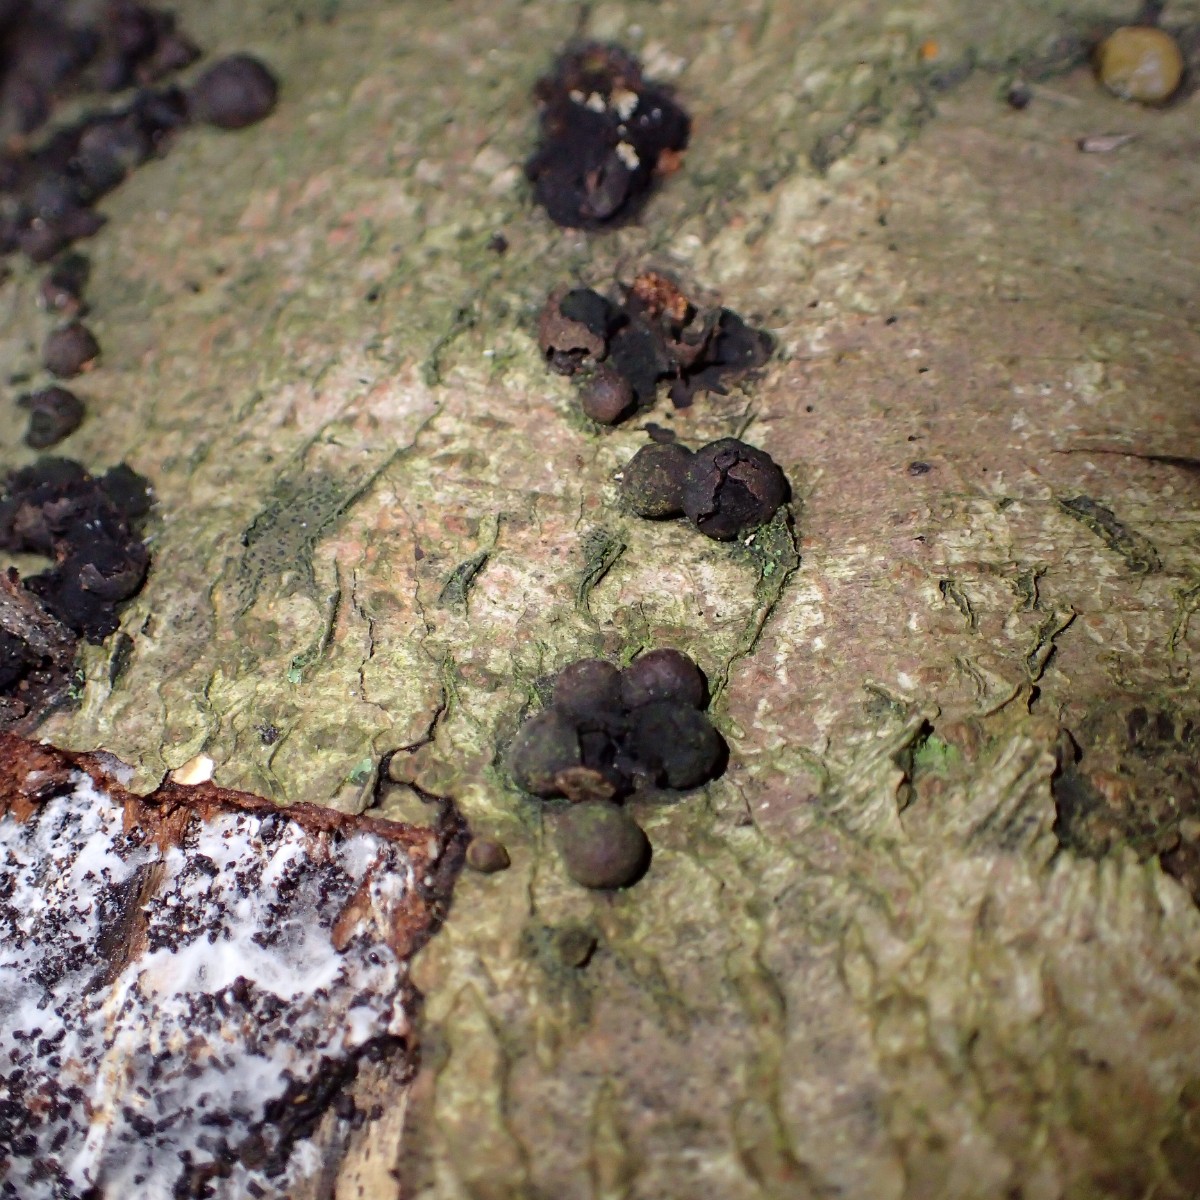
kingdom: Fungi
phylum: Ascomycota
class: Sordariomycetes
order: Xylariales
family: Hypoxylaceae
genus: Hypoxylon
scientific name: Hypoxylon fragiforme
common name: kuljordbær
